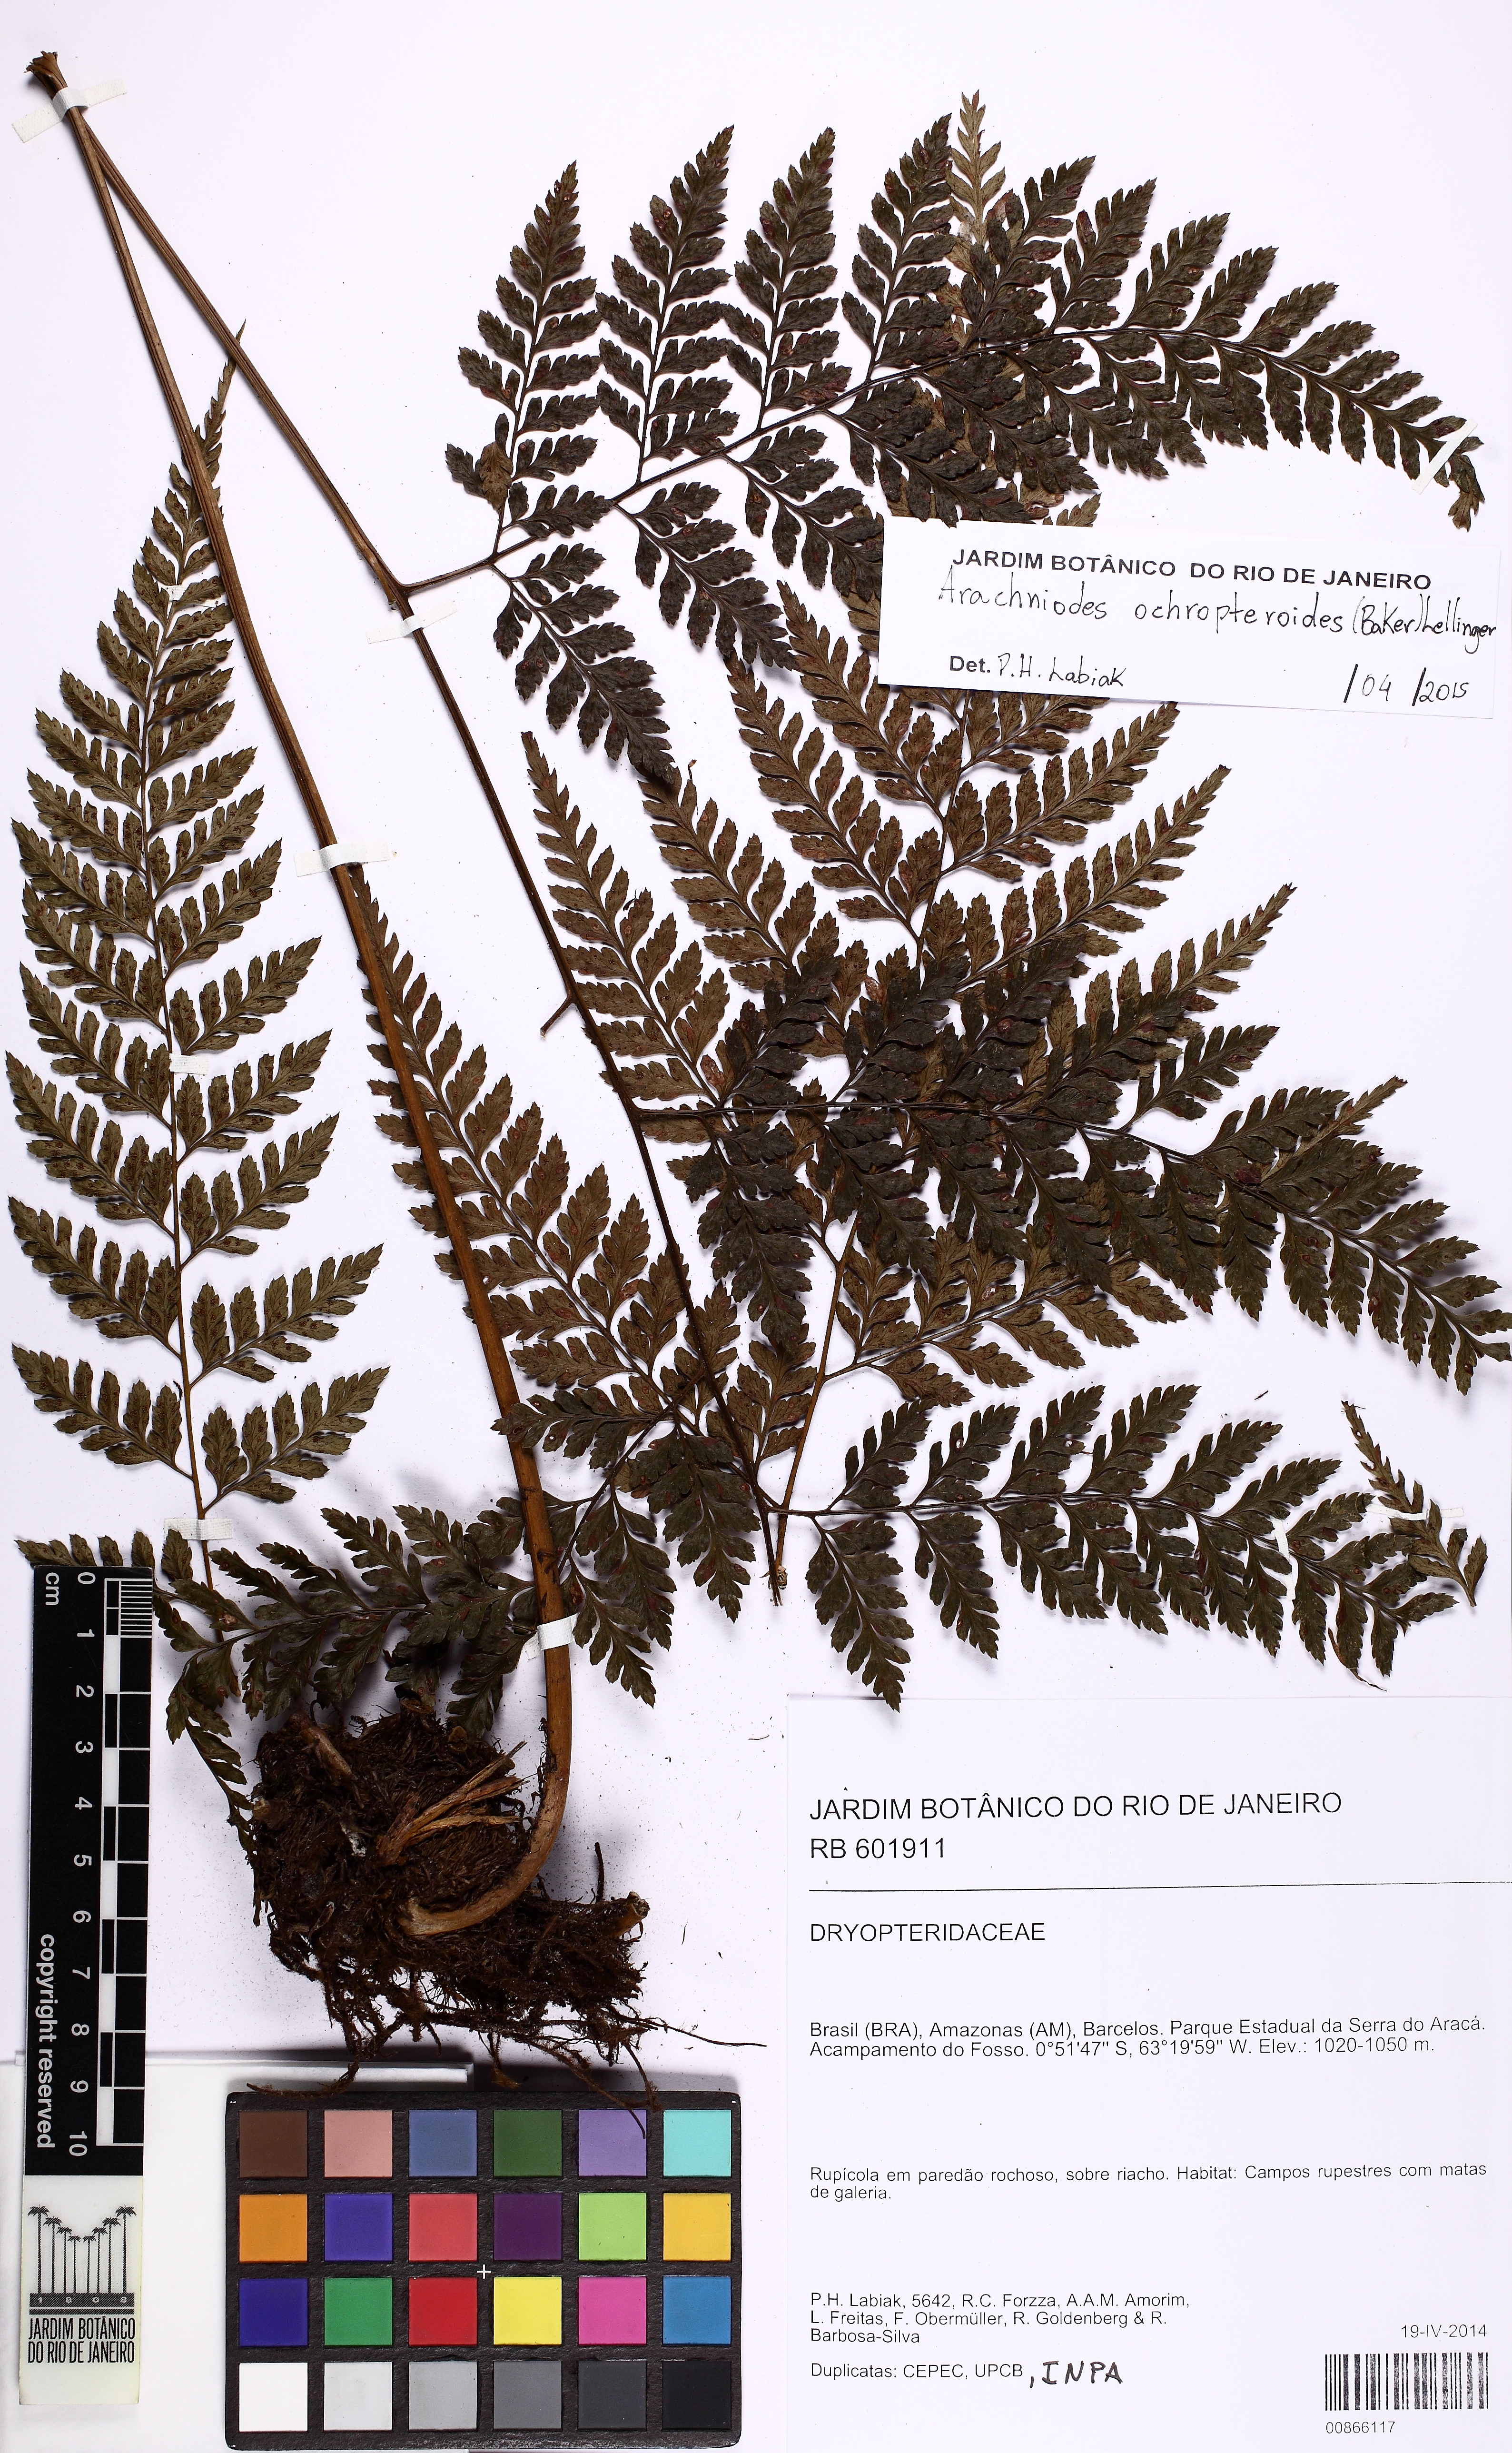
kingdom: Plantae
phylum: Tracheophyta
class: Polypodiopsida
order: Polypodiales
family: Dryopteridaceae
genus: Olfersia
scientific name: Olfersia ochropteroides
